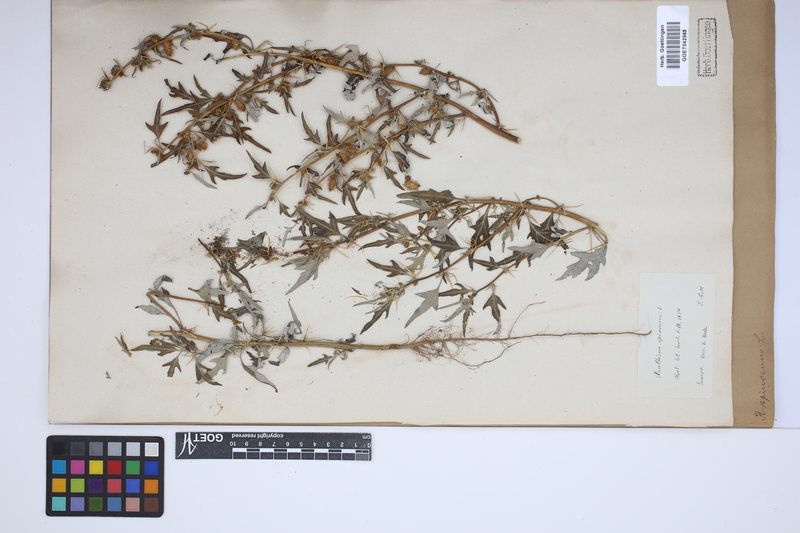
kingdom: Plantae
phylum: Tracheophyta
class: Magnoliopsida
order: Asterales
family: Asteraceae
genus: Xanthium
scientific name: Xanthium spinosum
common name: Spiny cocklebur
